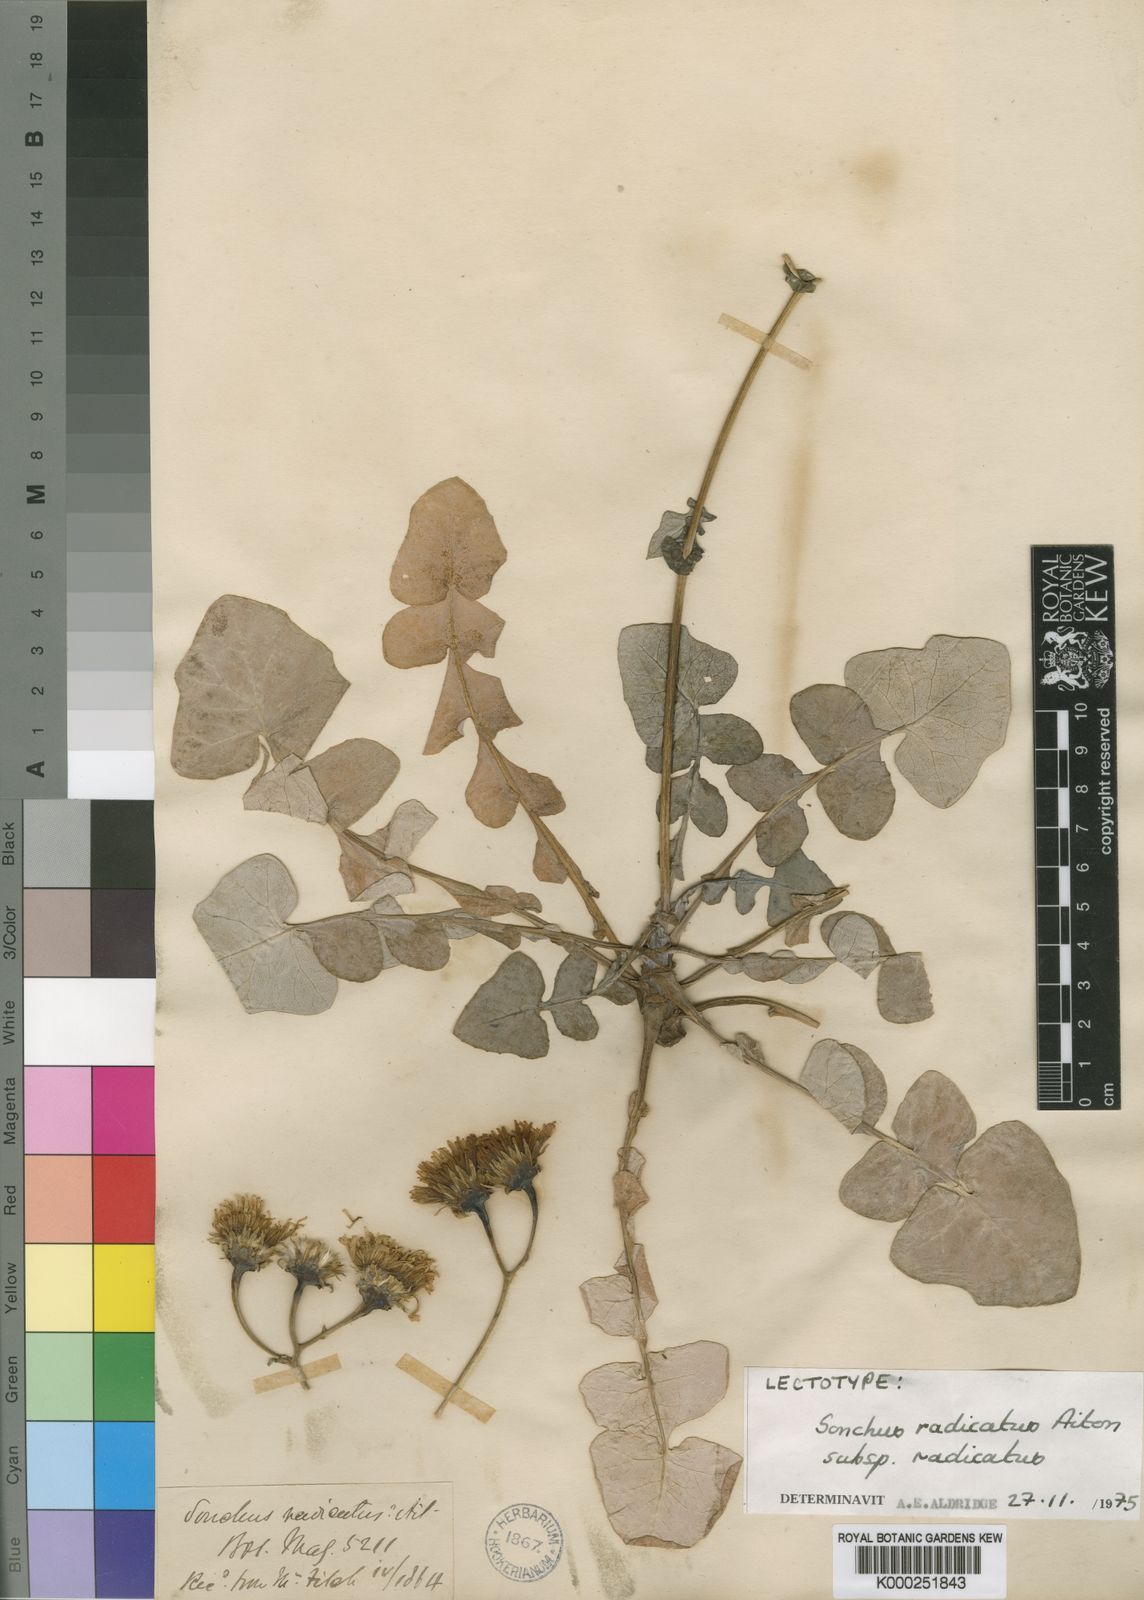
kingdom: Plantae
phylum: Tracheophyta
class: Magnoliopsida
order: Asterales
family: Asteraceae
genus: Sonchus
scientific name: Sonchus radicatus
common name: Long-rooted sow-thistle
